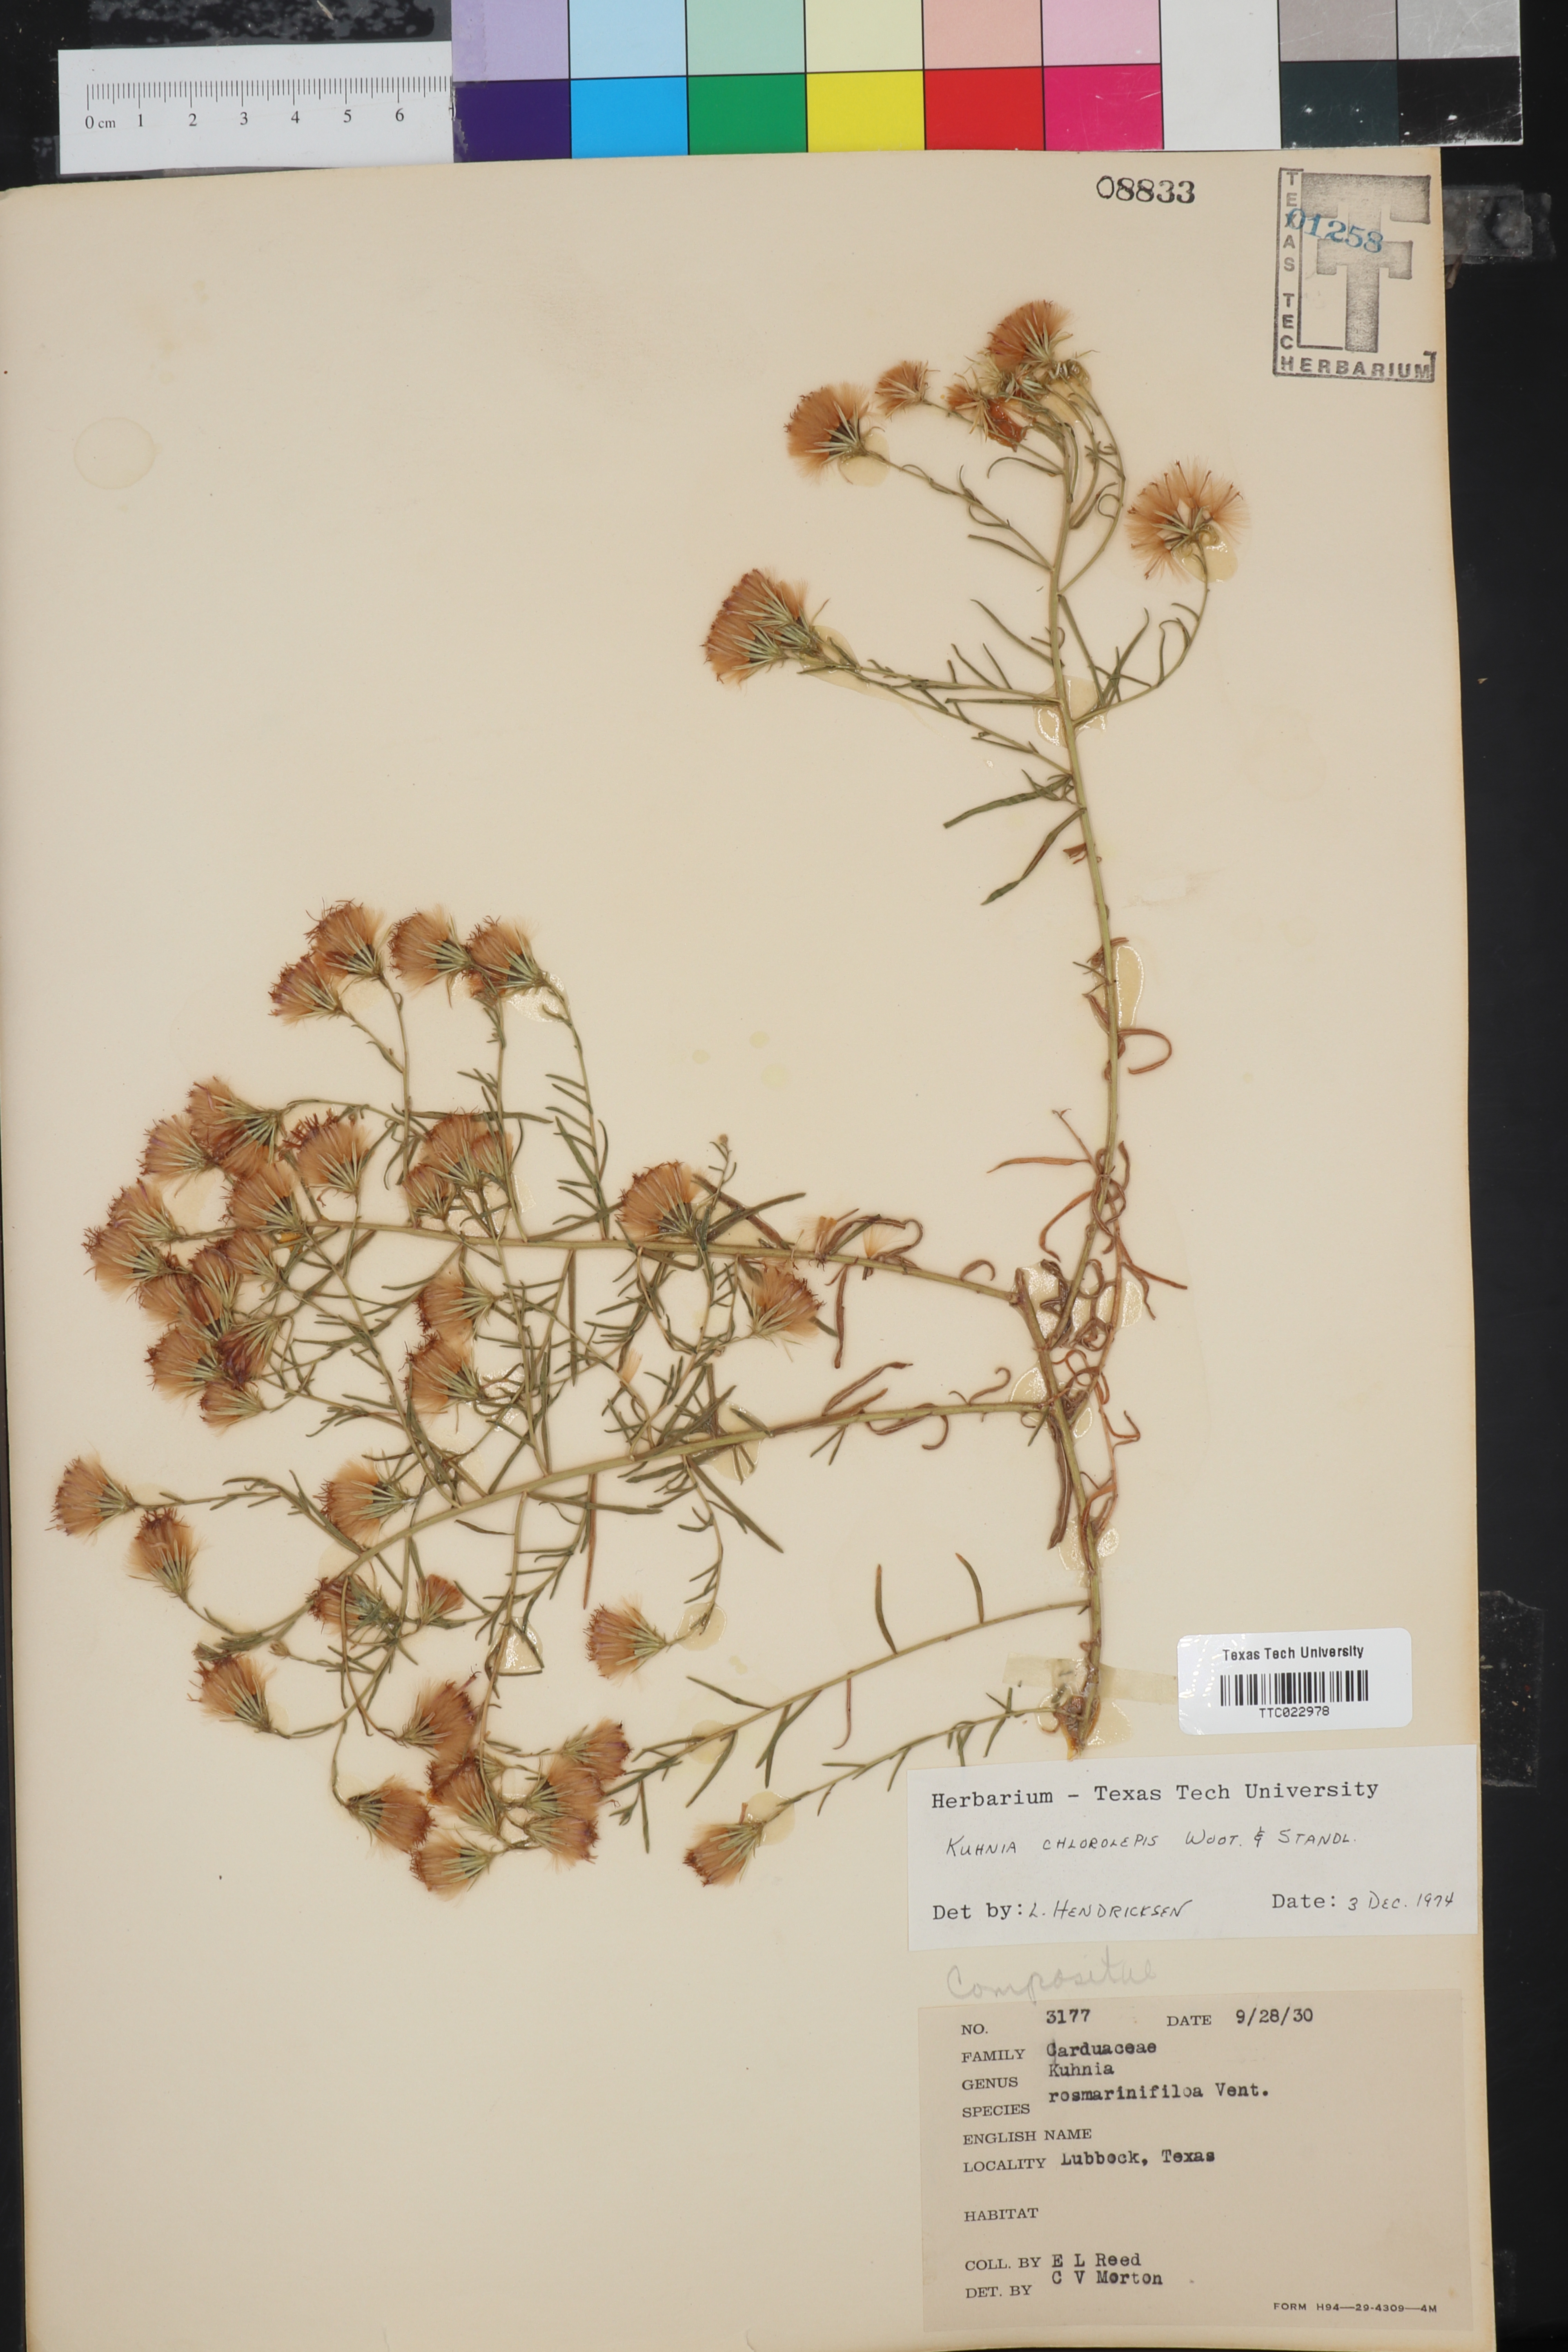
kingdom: Plantae
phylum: Tracheophyta
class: Magnoliopsida
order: Asterales
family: Asteraceae
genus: Brickellia
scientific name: Brickellia leptophylla
